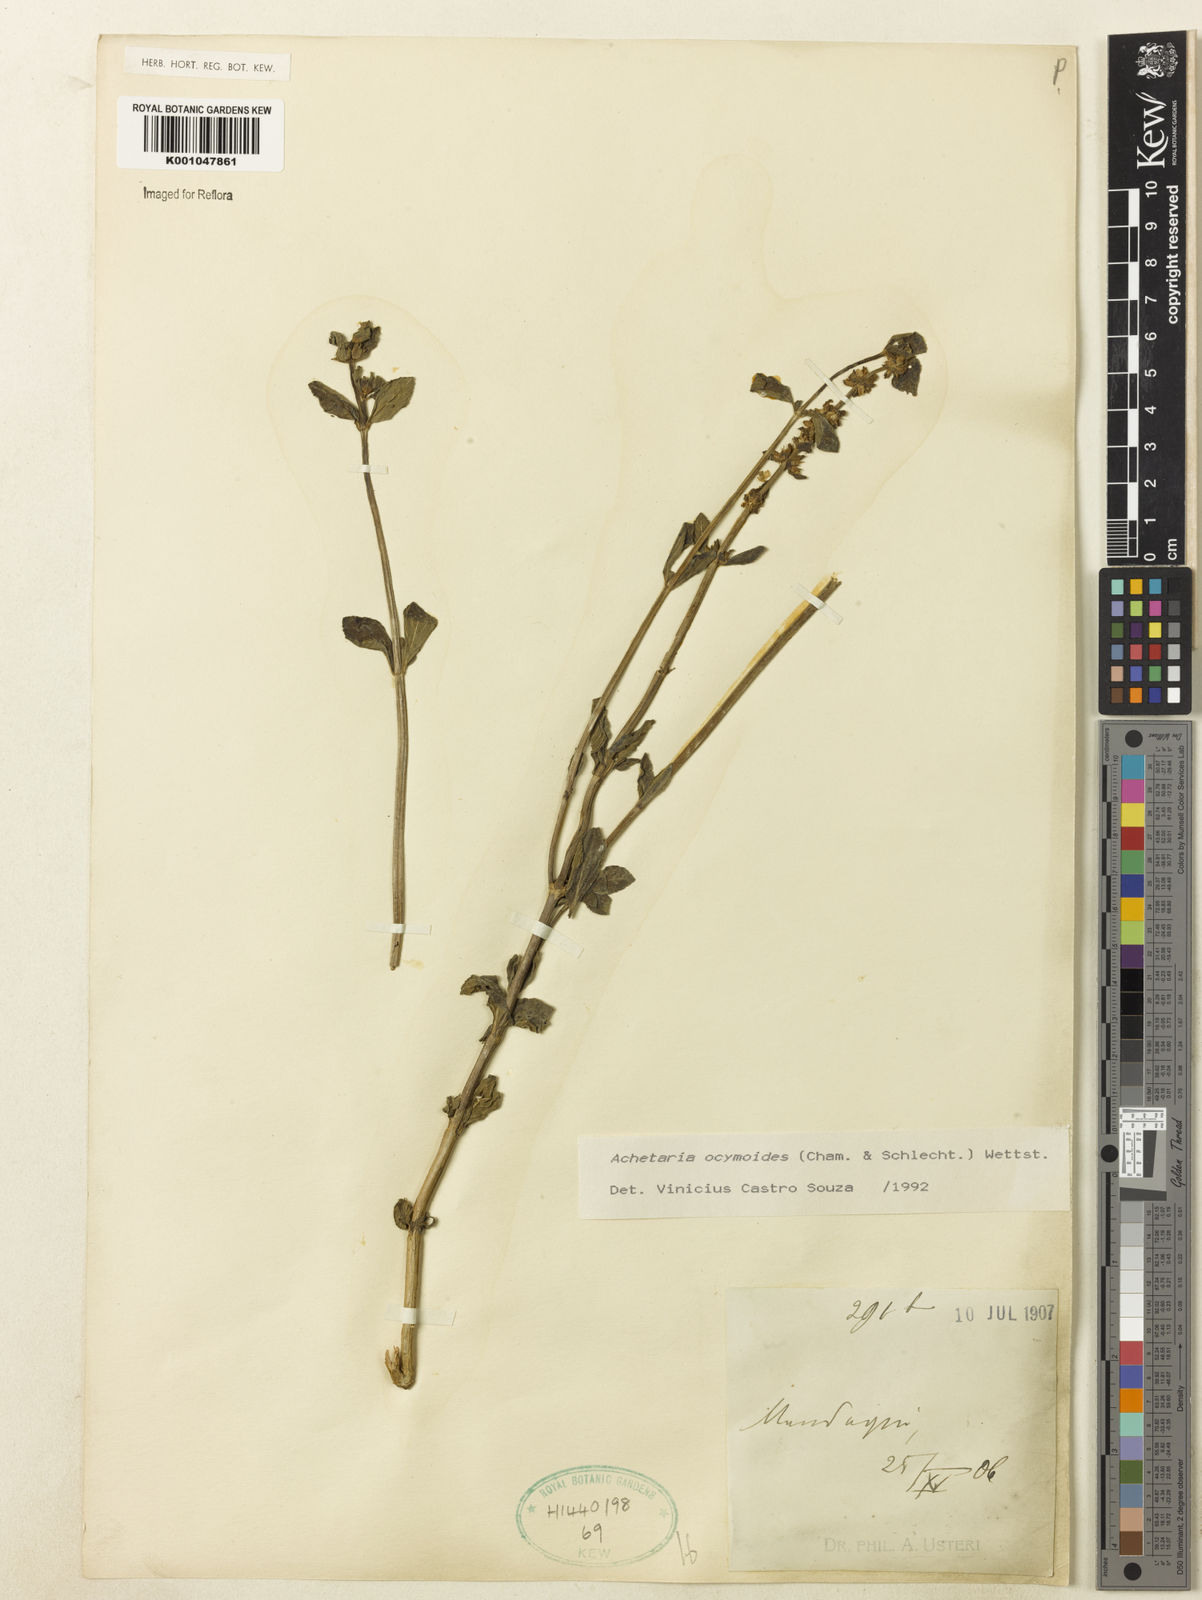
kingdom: Plantae
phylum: Tracheophyta
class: Magnoliopsida
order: Lamiales
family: Plantaginaceae
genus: Matourea
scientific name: Matourea ocymoides
